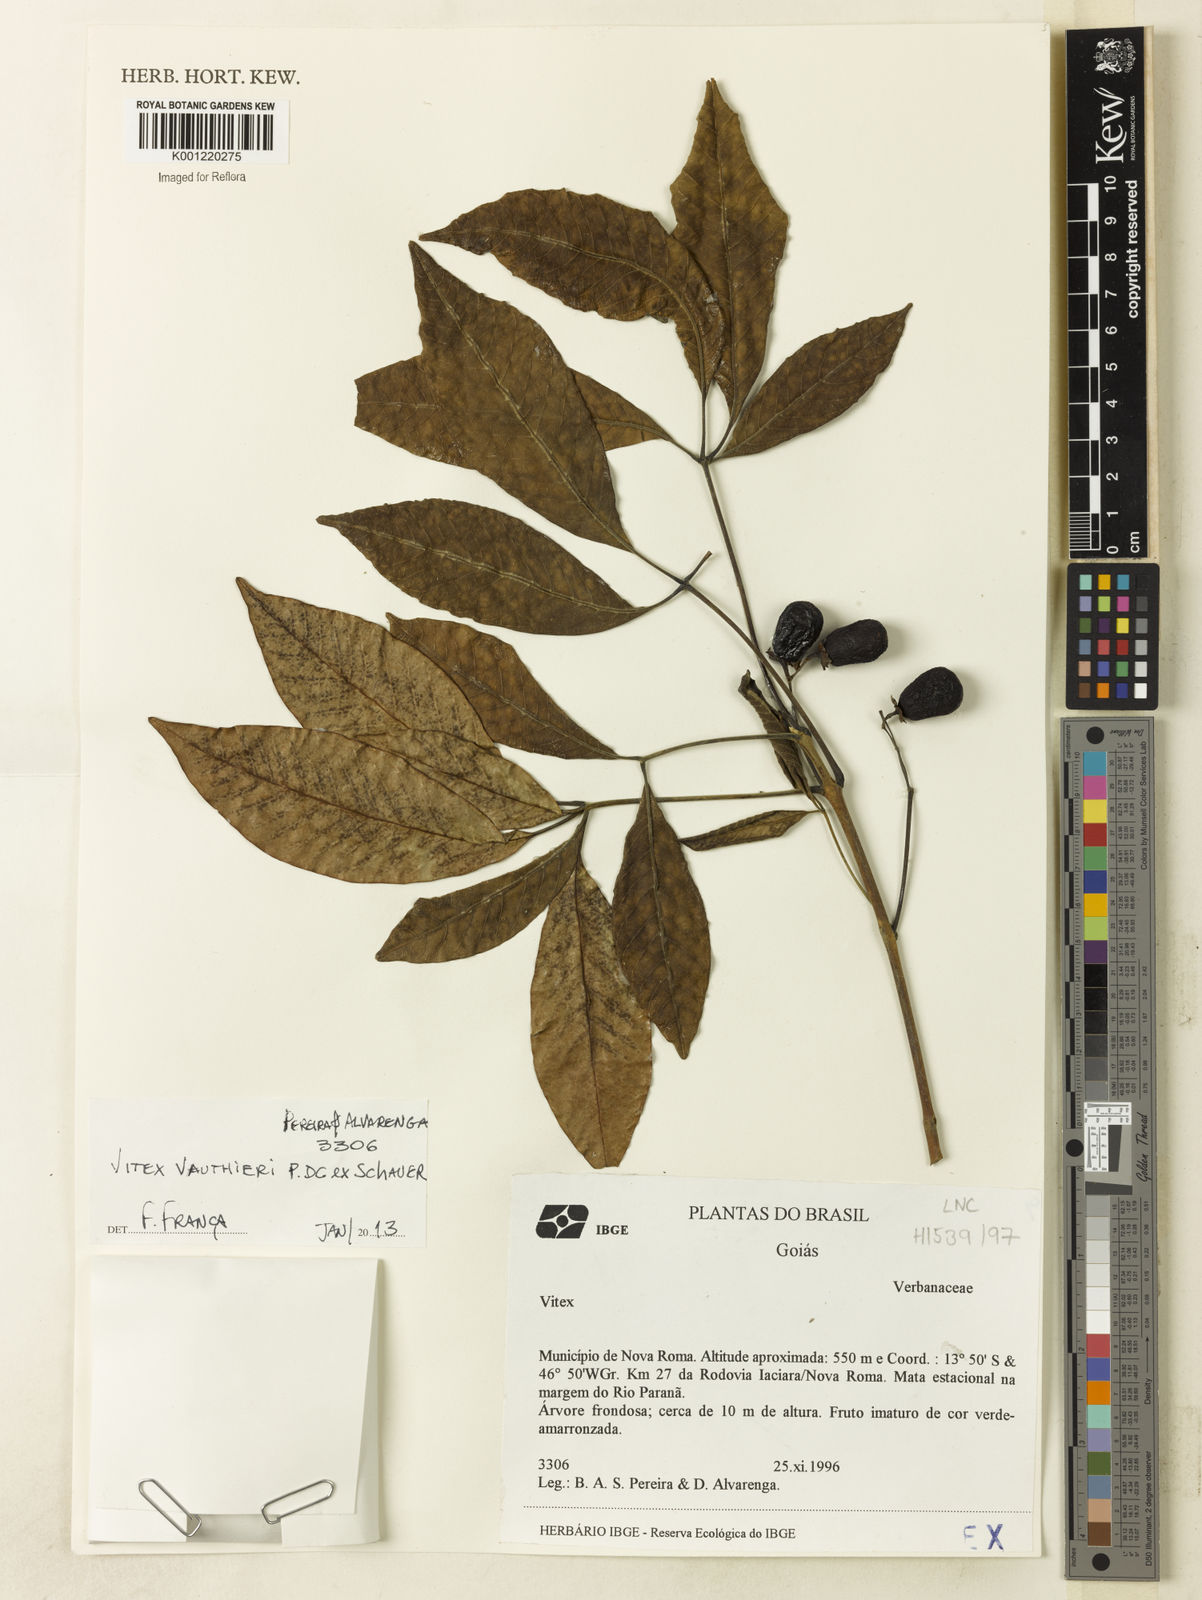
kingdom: Plantae
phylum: Tracheophyta
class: Magnoliopsida
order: Lamiales
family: Lamiaceae
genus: Vitex
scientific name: Vitex vauthieri
